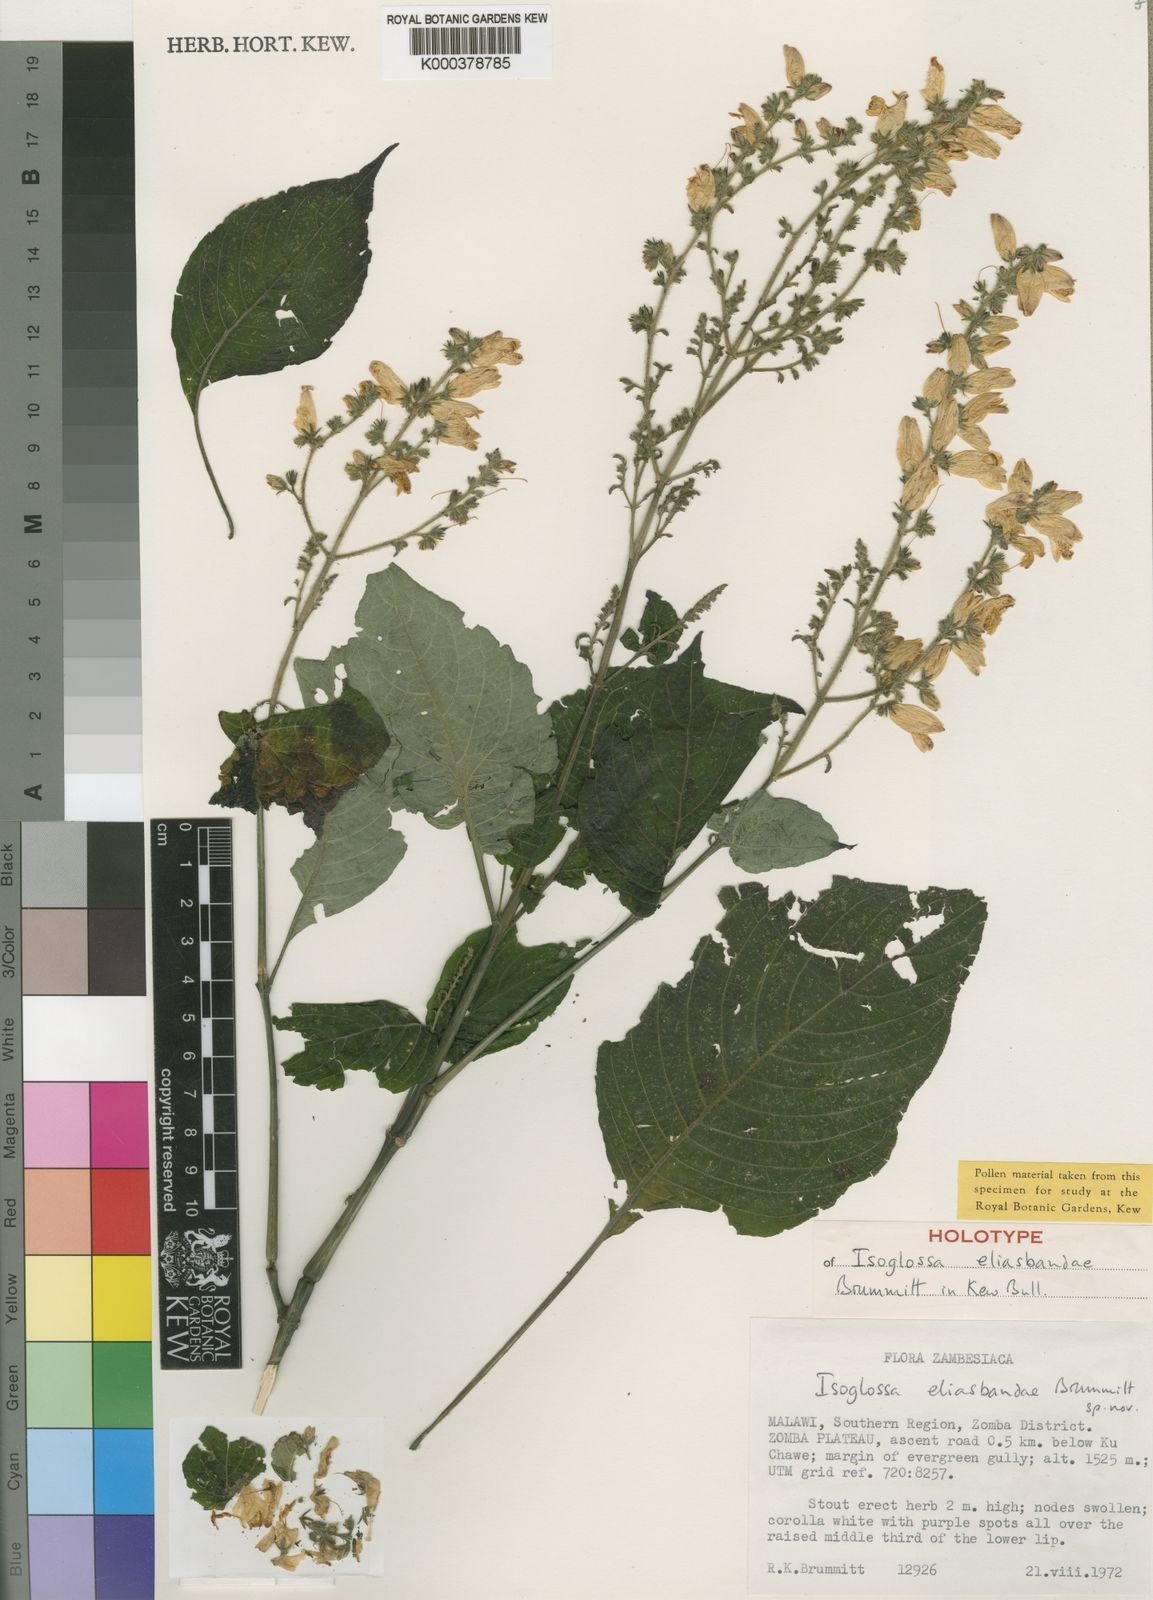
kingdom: Plantae
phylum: Tracheophyta
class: Magnoliopsida
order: Lamiales
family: Acanthaceae
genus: Isoglossa
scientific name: Isoglossa eliasbandae
